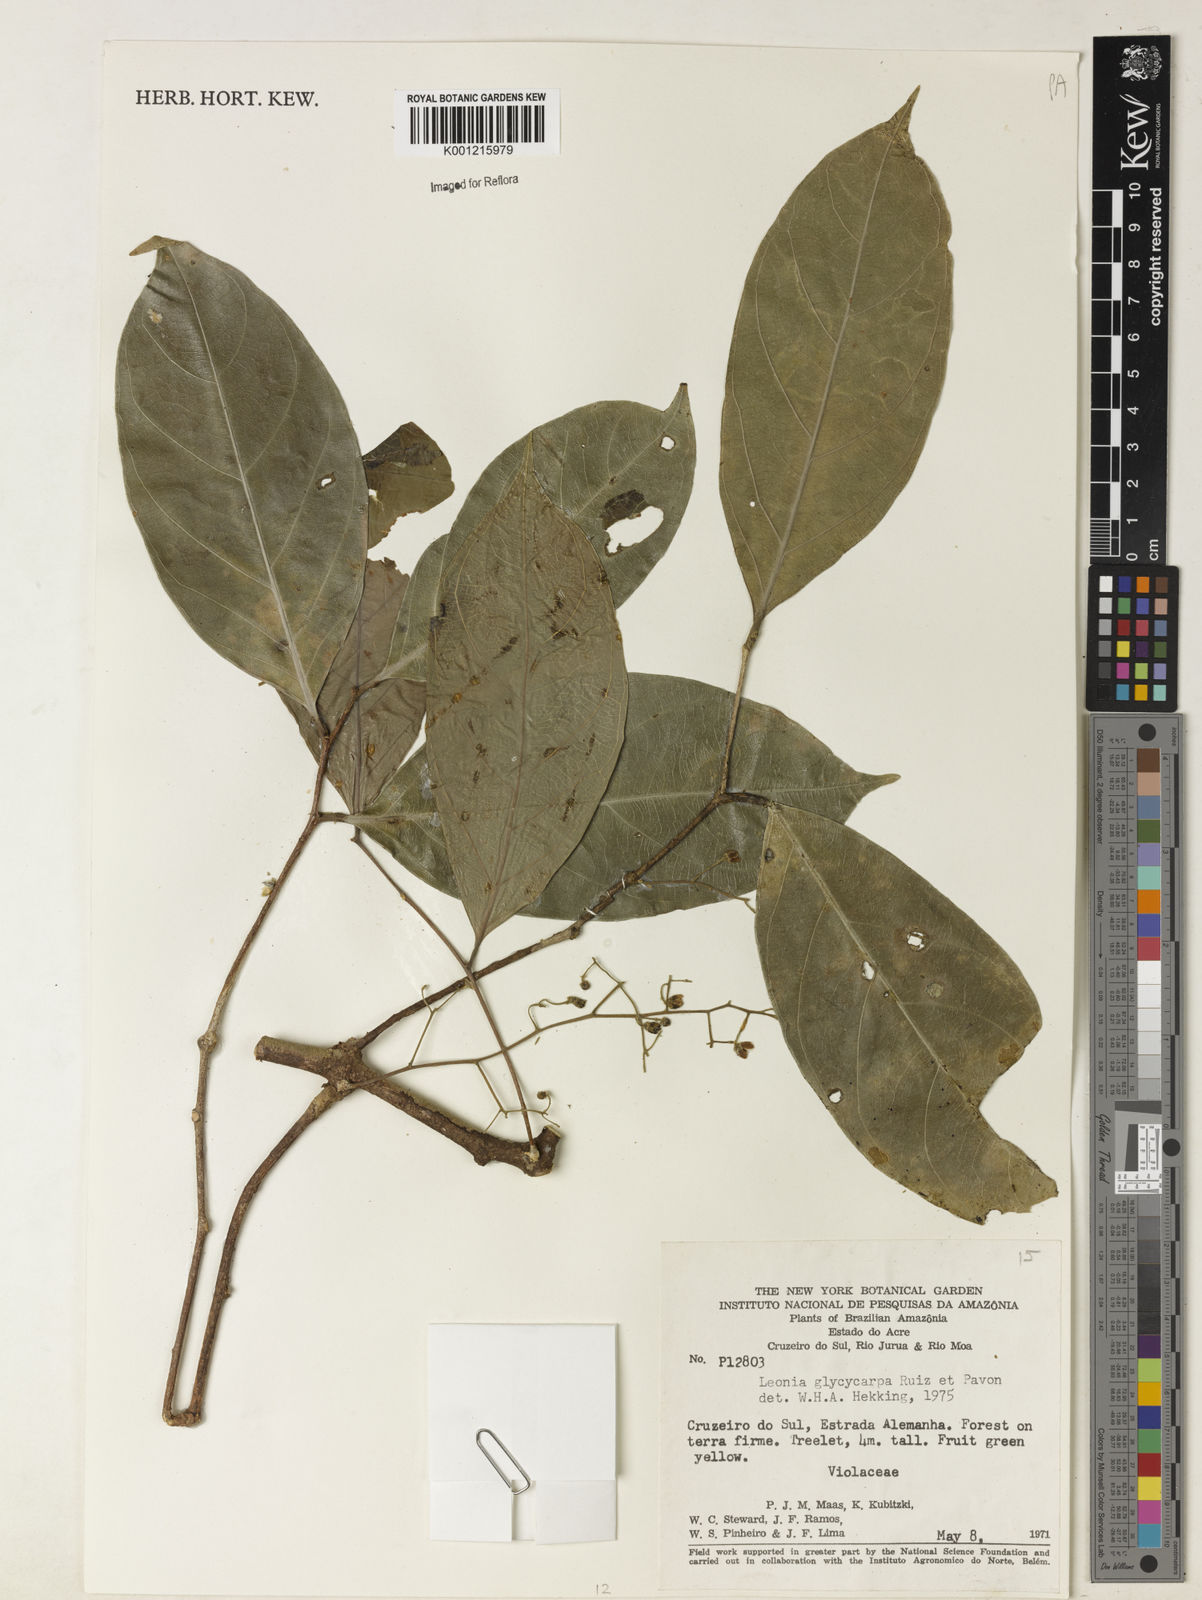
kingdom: Plantae
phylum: Tracheophyta
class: Magnoliopsida
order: Malpighiales
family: Violaceae
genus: Leonia
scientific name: Leonia glycycarpa
